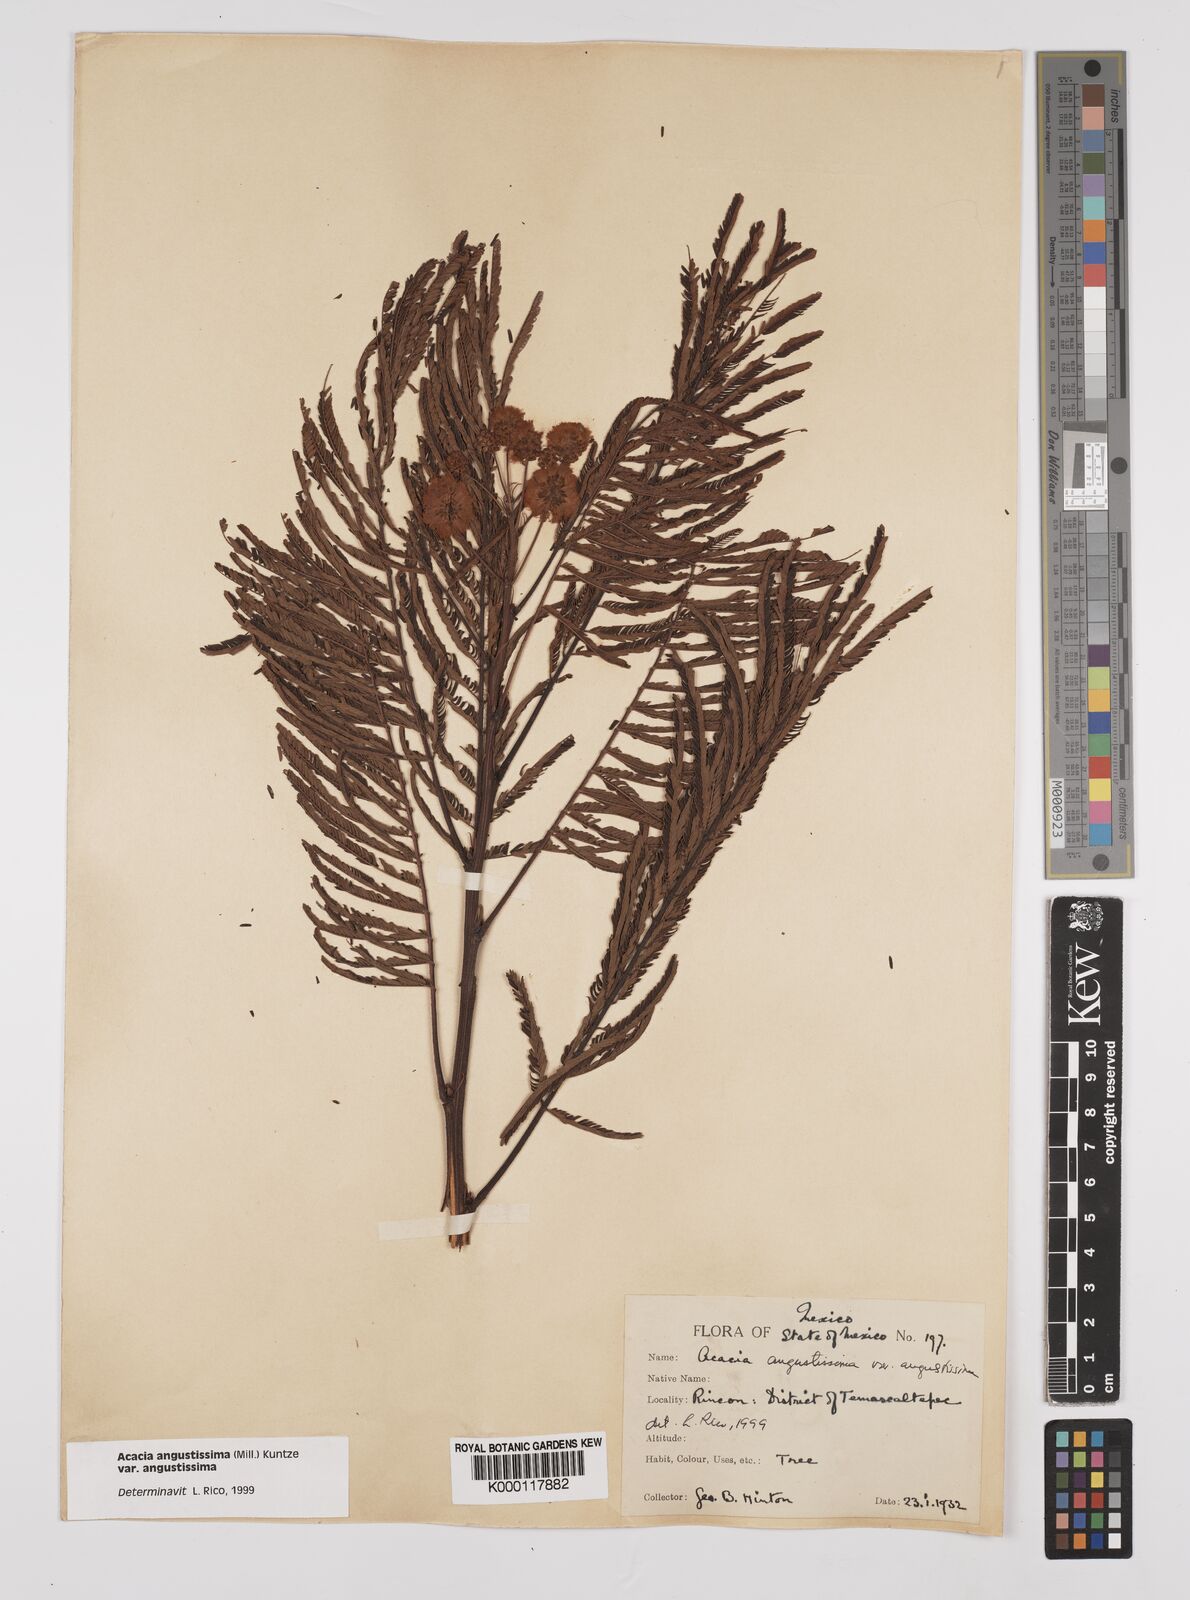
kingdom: Plantae
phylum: Tracheophyta
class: Magnoliopsida
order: Fabales
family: Fabaceae
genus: Acaciella
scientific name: Acaciella angustissima
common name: Prairie acacia
